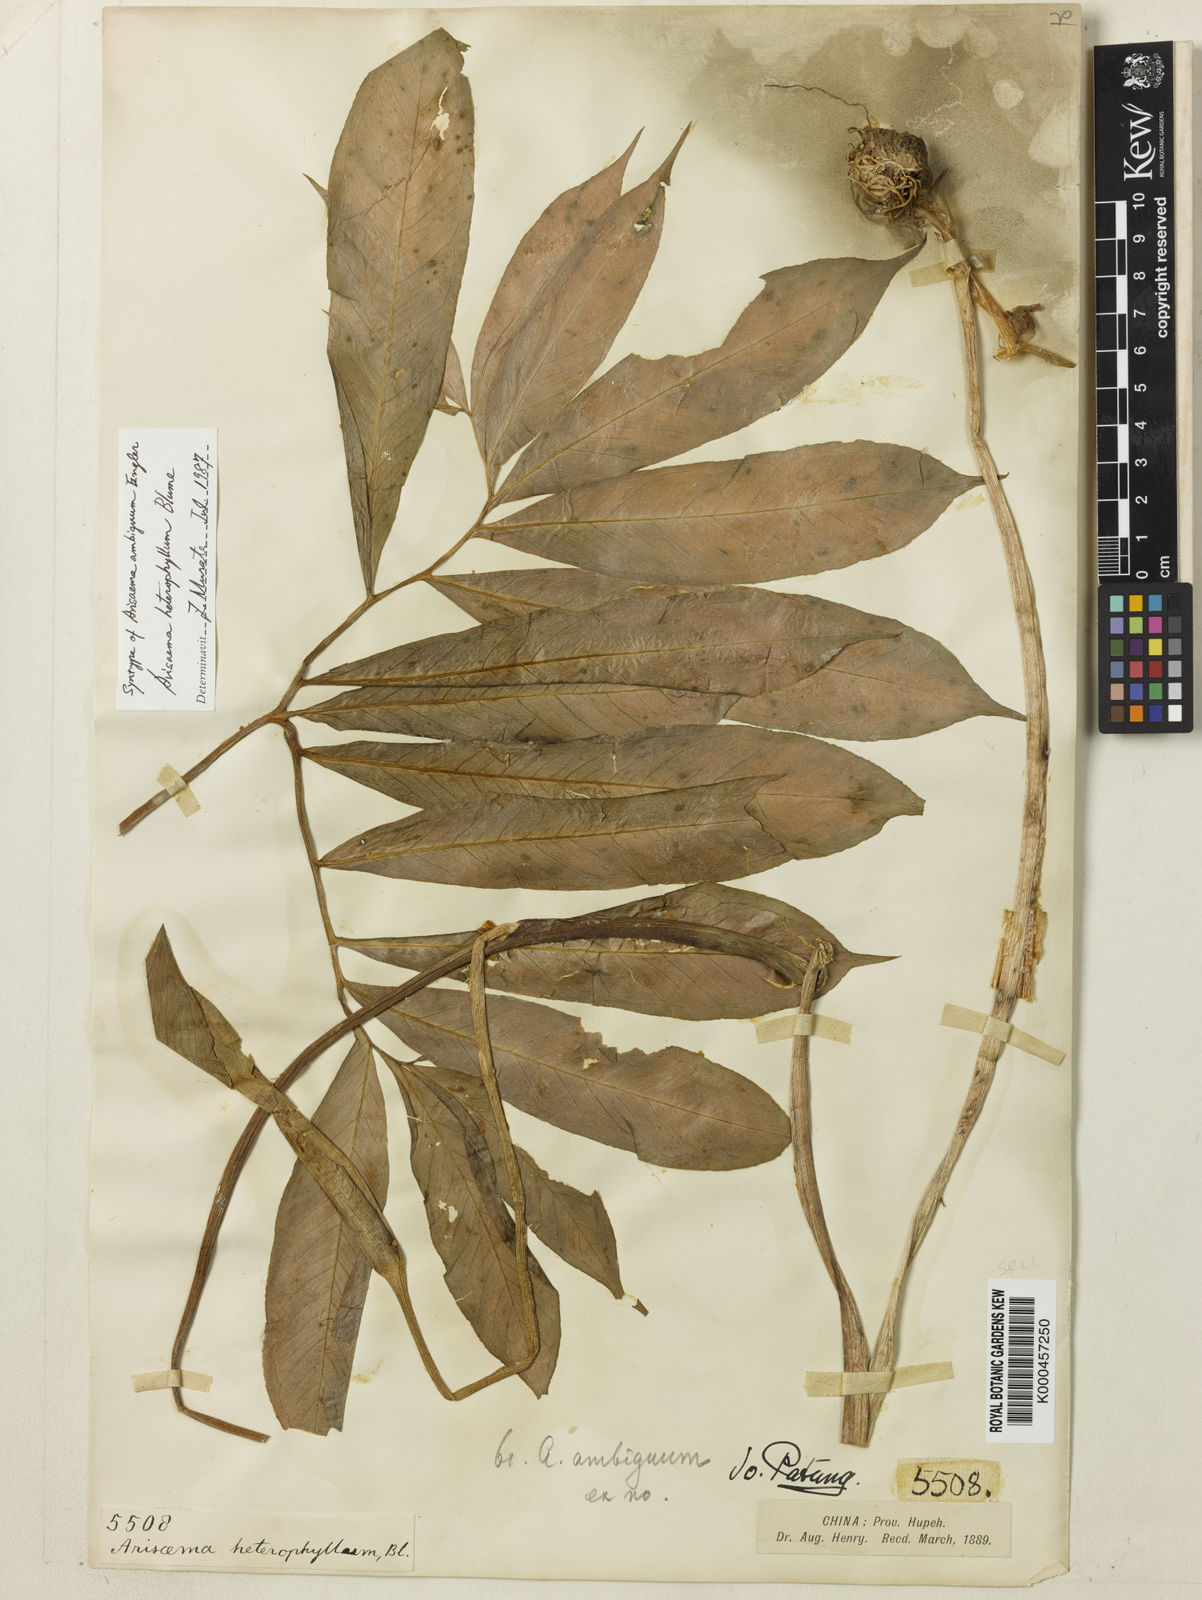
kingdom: Plantae
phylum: Tracheophyta
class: Liliopsida
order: Alismatales
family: Araceae
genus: Arisaema
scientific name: Arisaema heterophyllum
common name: Dancing crane cobra lily
